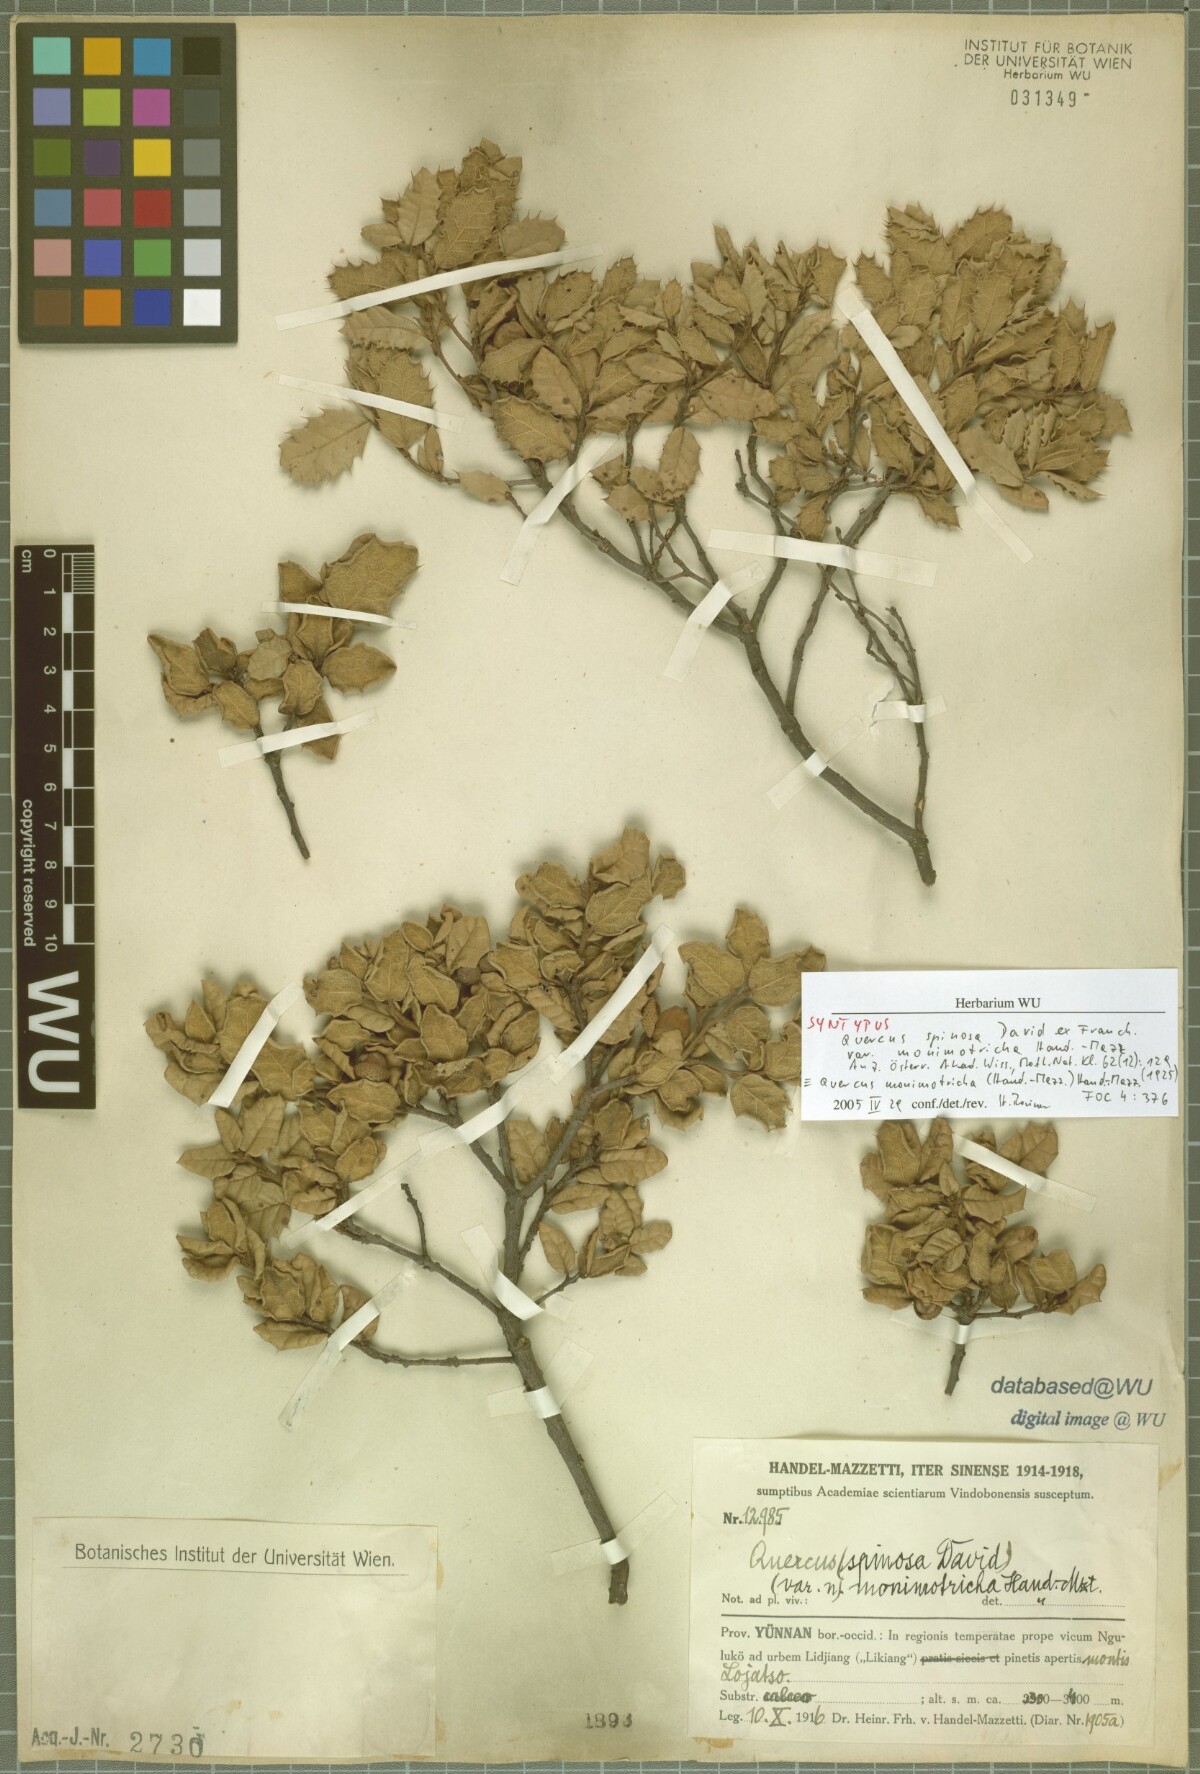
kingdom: Plantae
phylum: Tracheophyta
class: Magnoliopsida
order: Fagales
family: Fagaceae
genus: Quercus
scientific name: Quercus monimotricha
